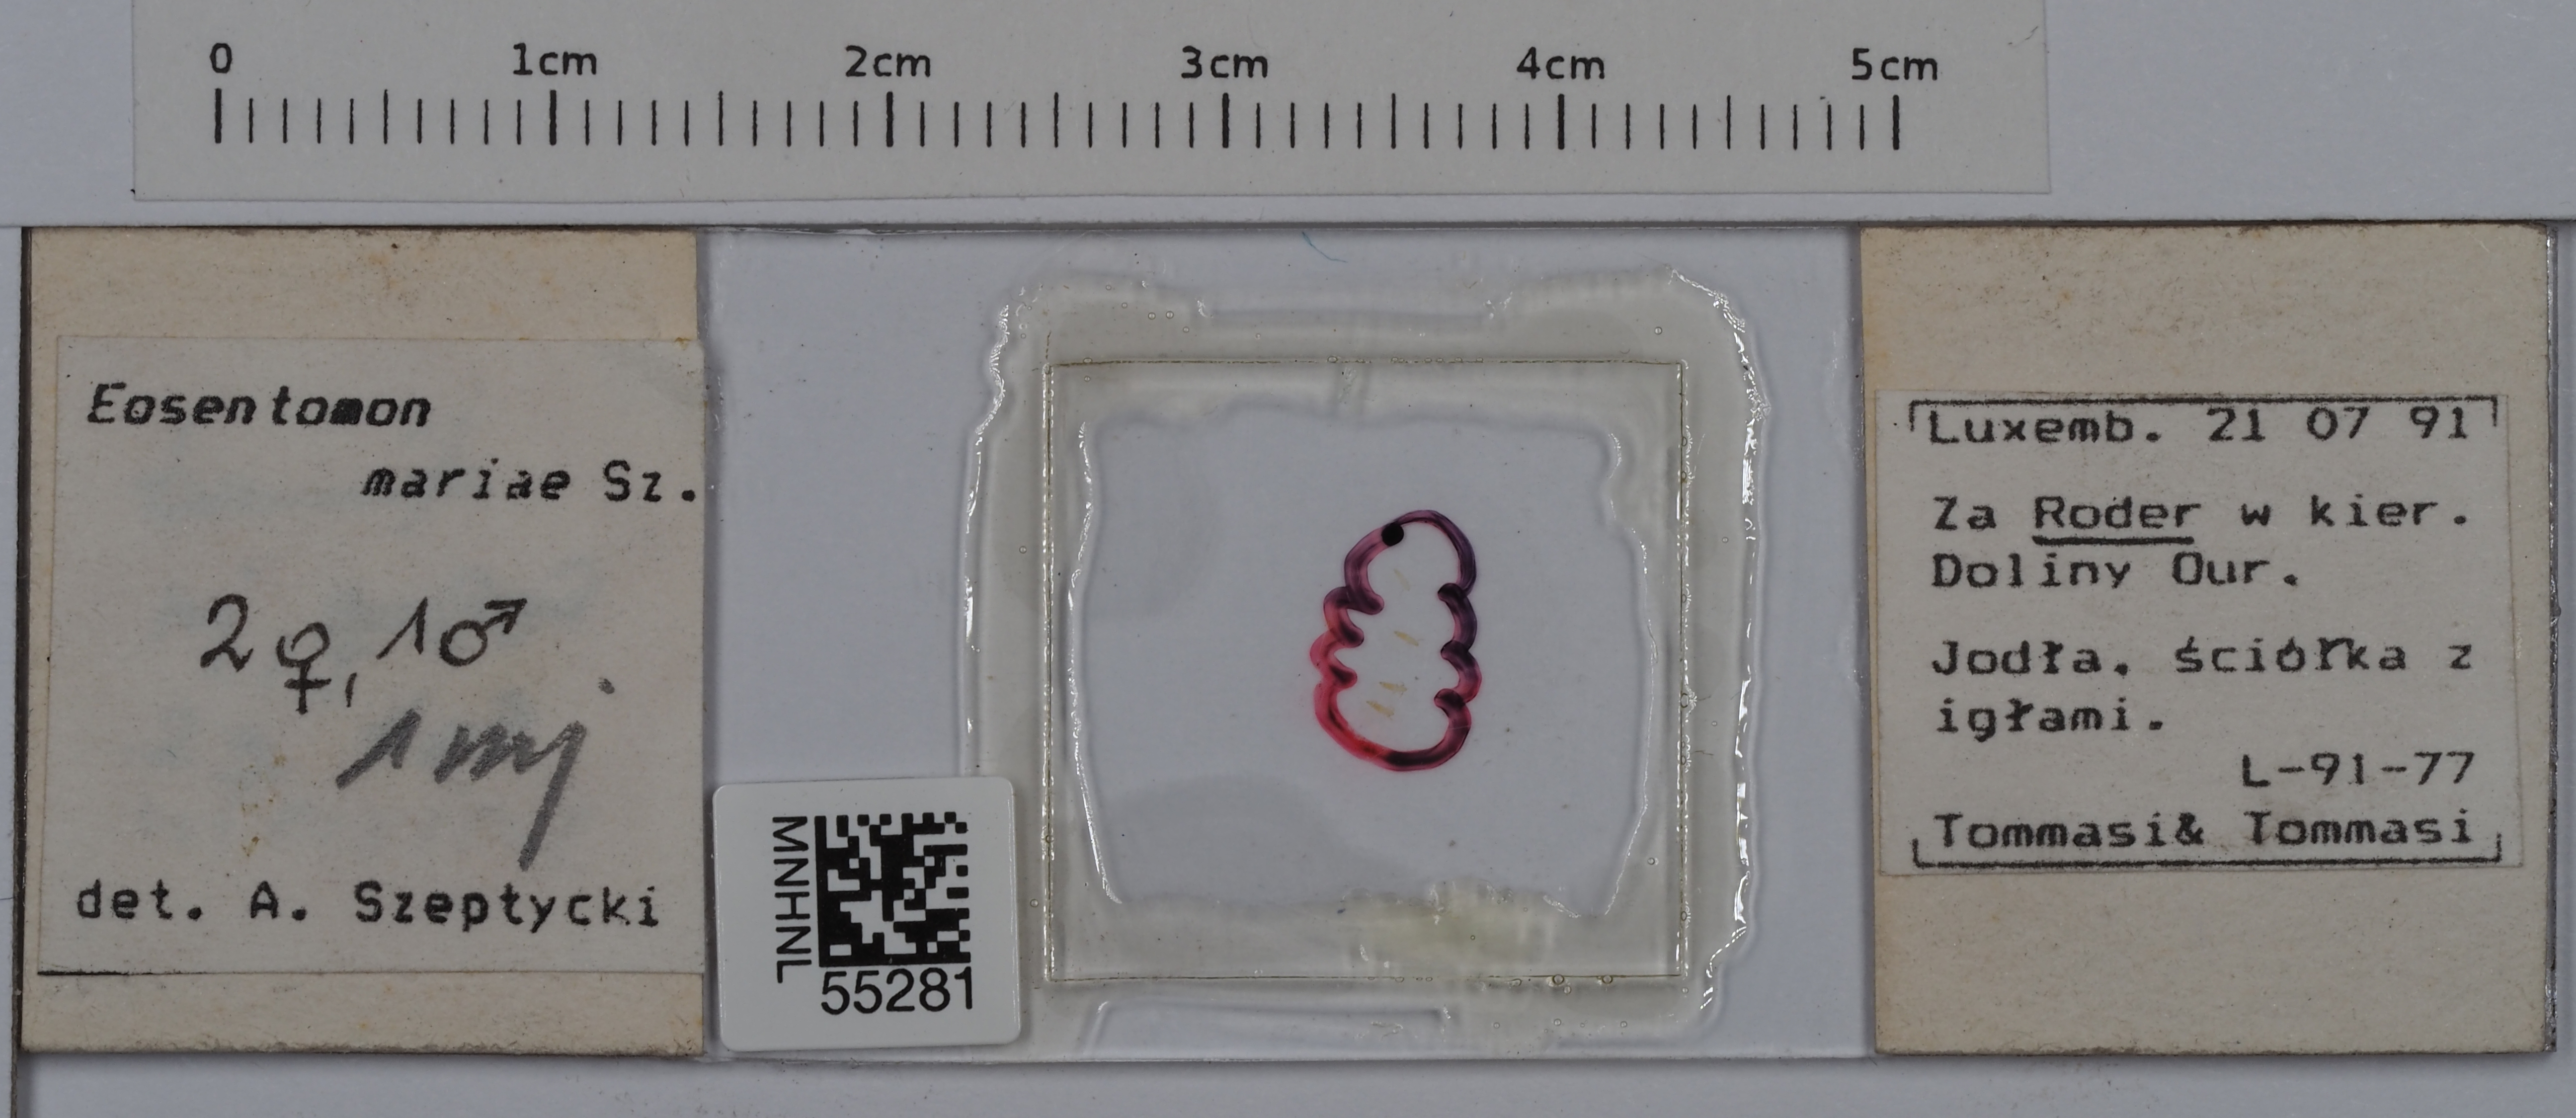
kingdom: Animalia
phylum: Arthropoda
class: Protura
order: Protura
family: Eosentomidae
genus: Eosentomon
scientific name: Eosentomon mariae
